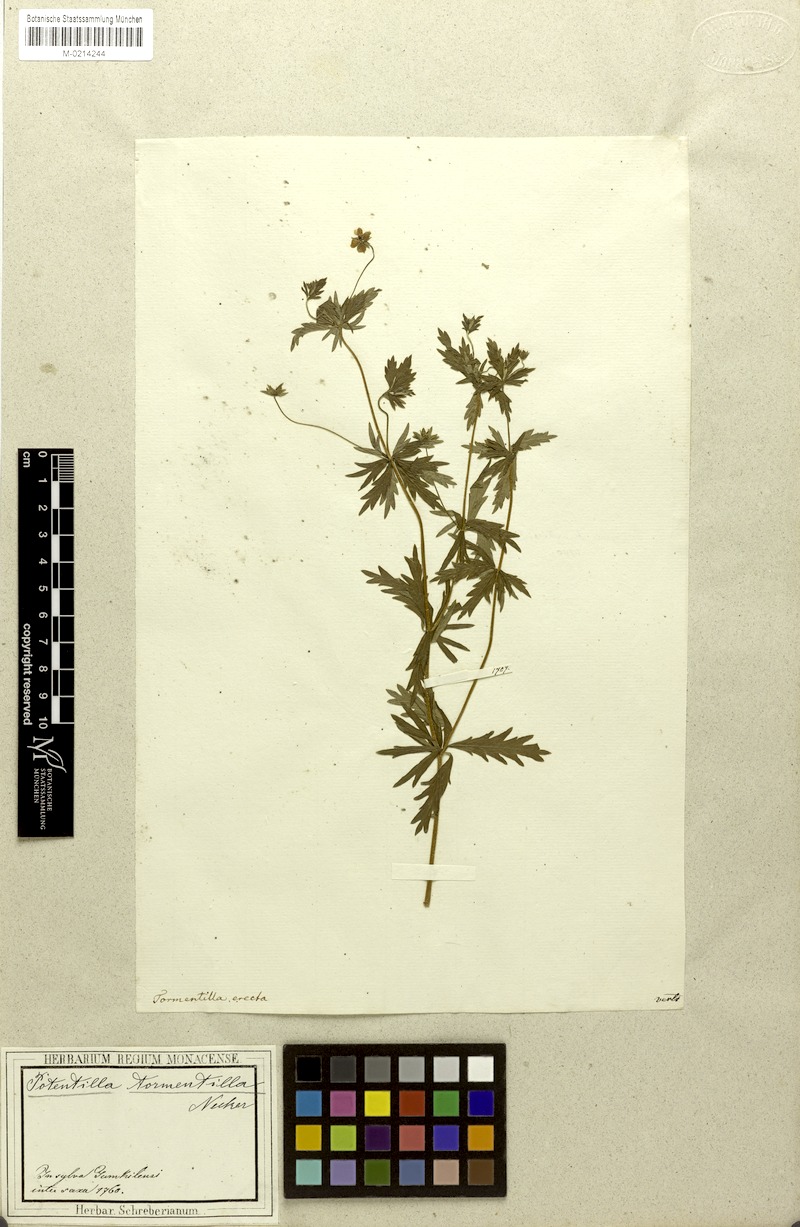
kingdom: Plantae
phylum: Tracheophyta
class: Magnoliopsida
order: Rosales
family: Rosaceae
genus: Potentilla
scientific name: Potentilla erecta
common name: Tormentil
